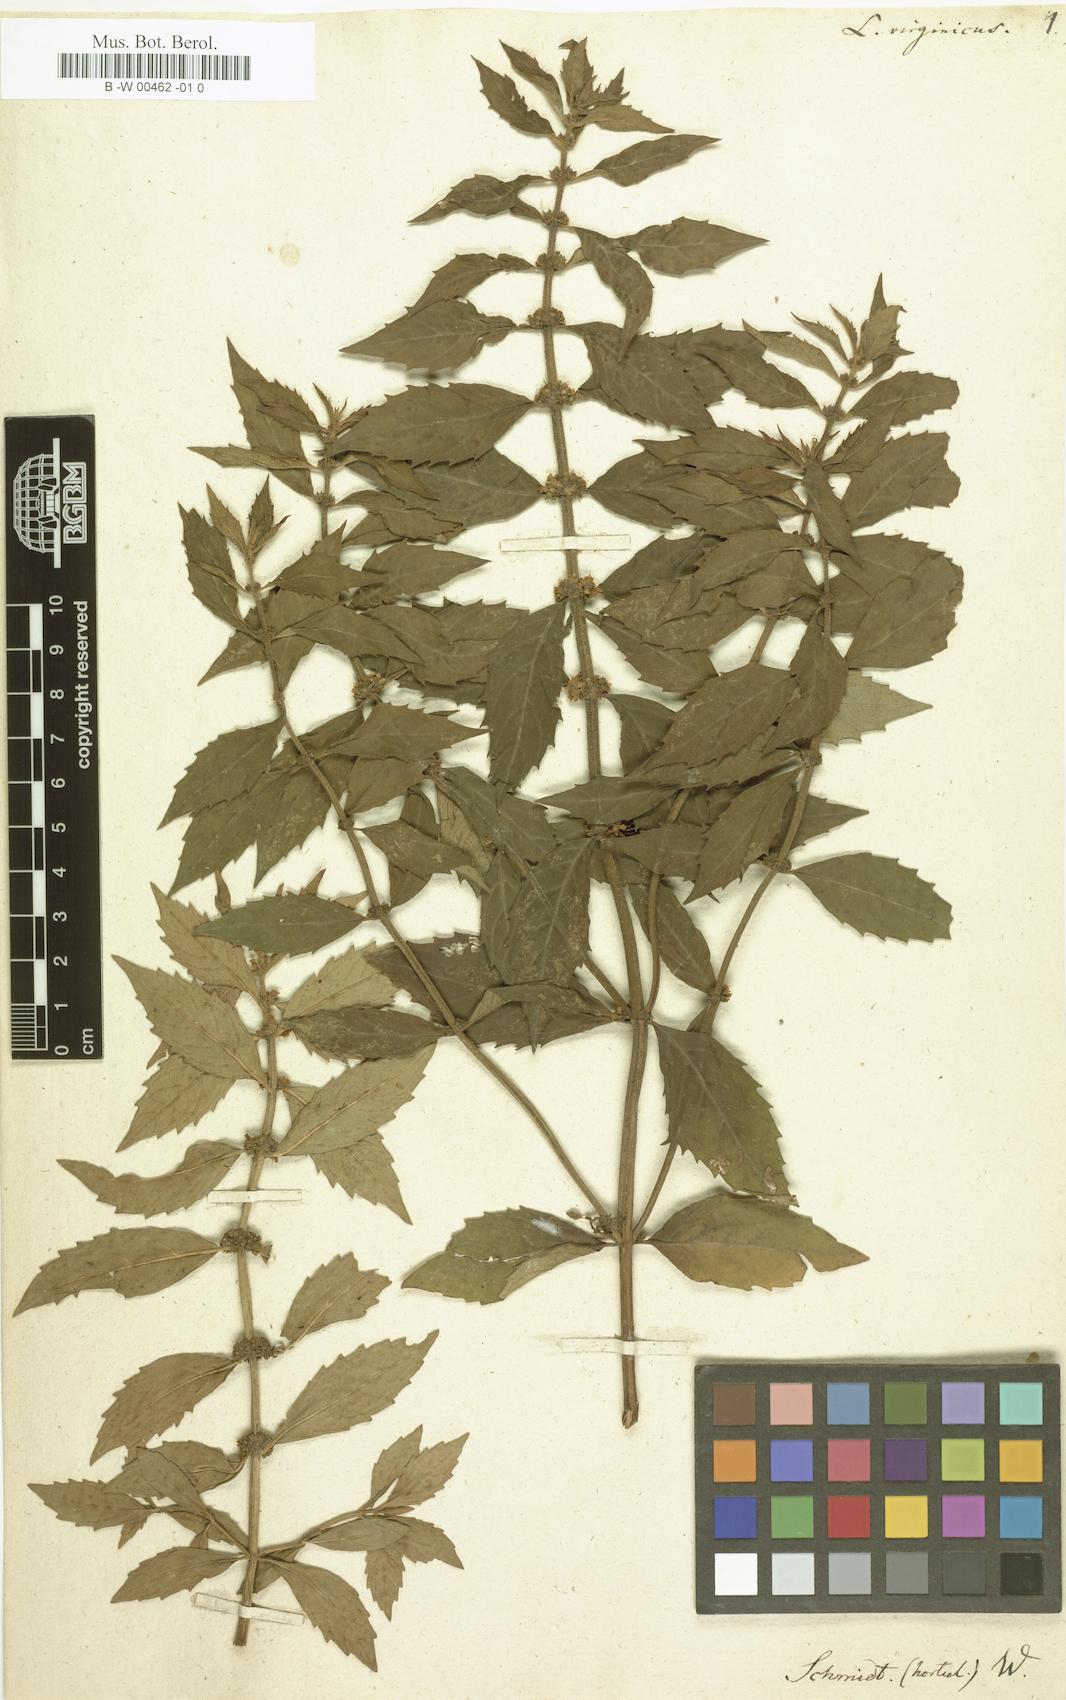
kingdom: Plantae
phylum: Tracheophyta
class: Magnoliopsida
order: Lamiales
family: Lamiaceae
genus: Lycopus
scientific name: Lycopus virginicus
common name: Bugleweed
